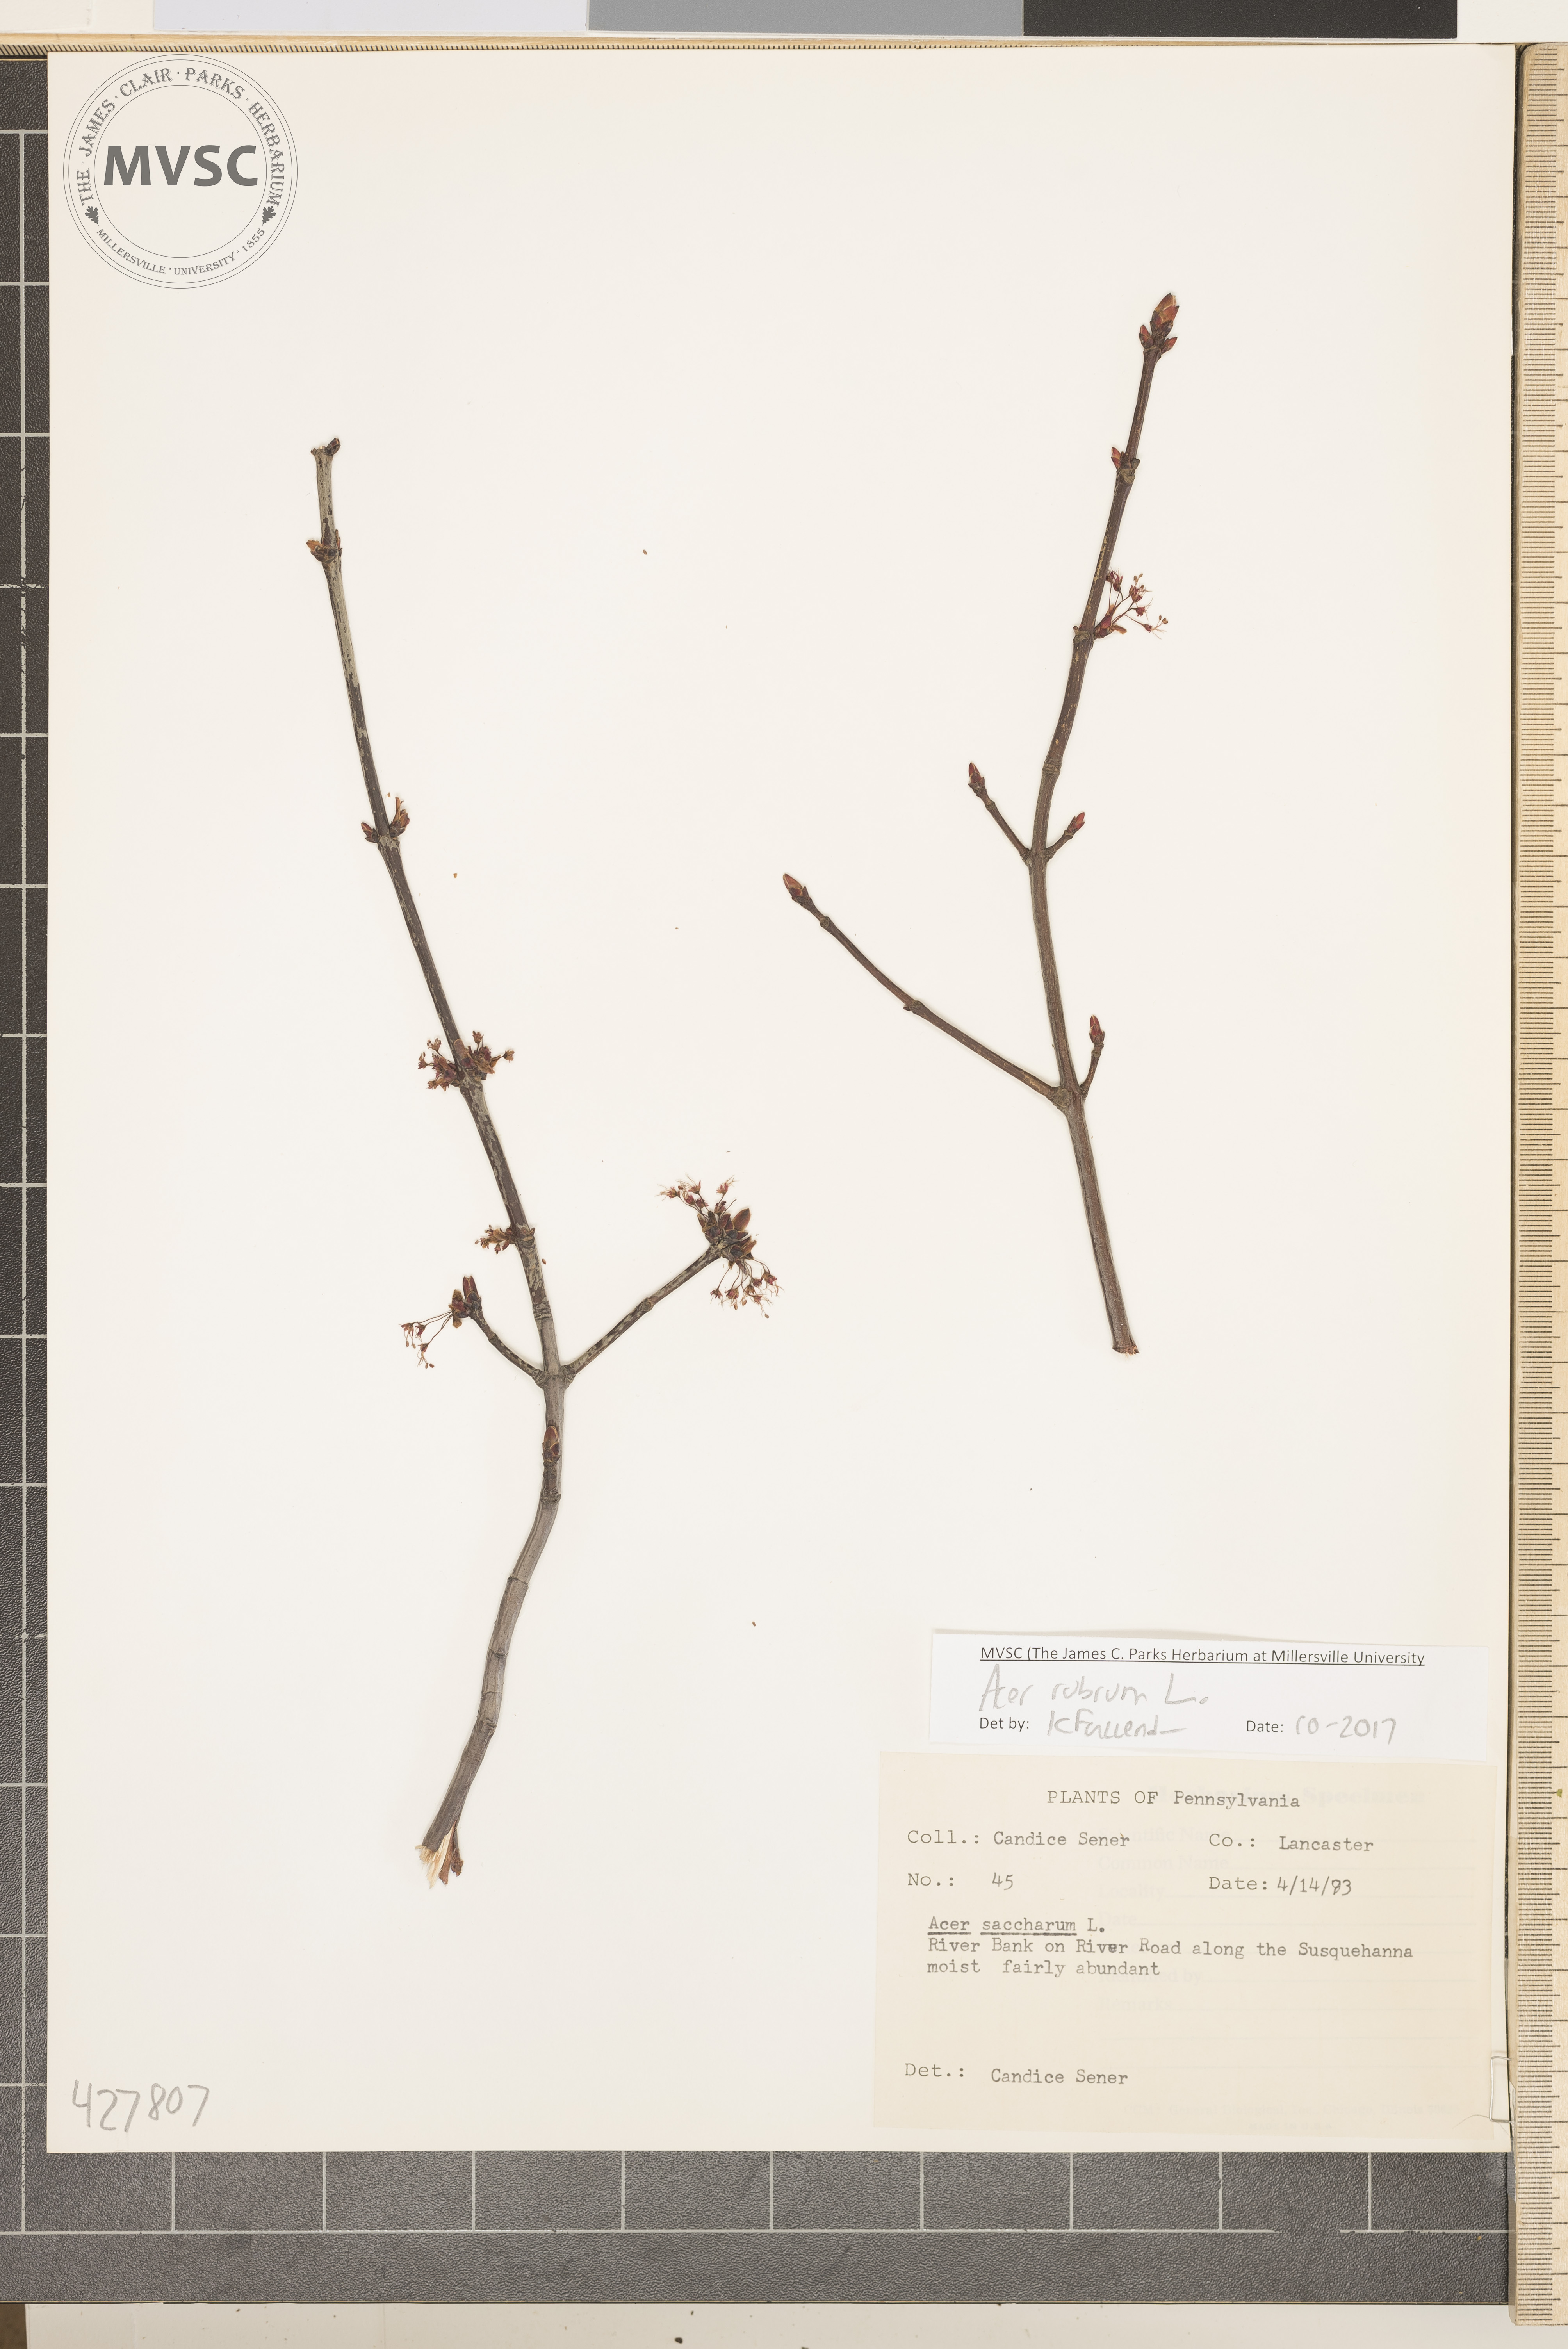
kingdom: Plantae
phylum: Tracheophyta
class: Magnoliopsida
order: Sapindales
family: Sapindaceae
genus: Acer
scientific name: Acer rubrum
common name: Red maple
